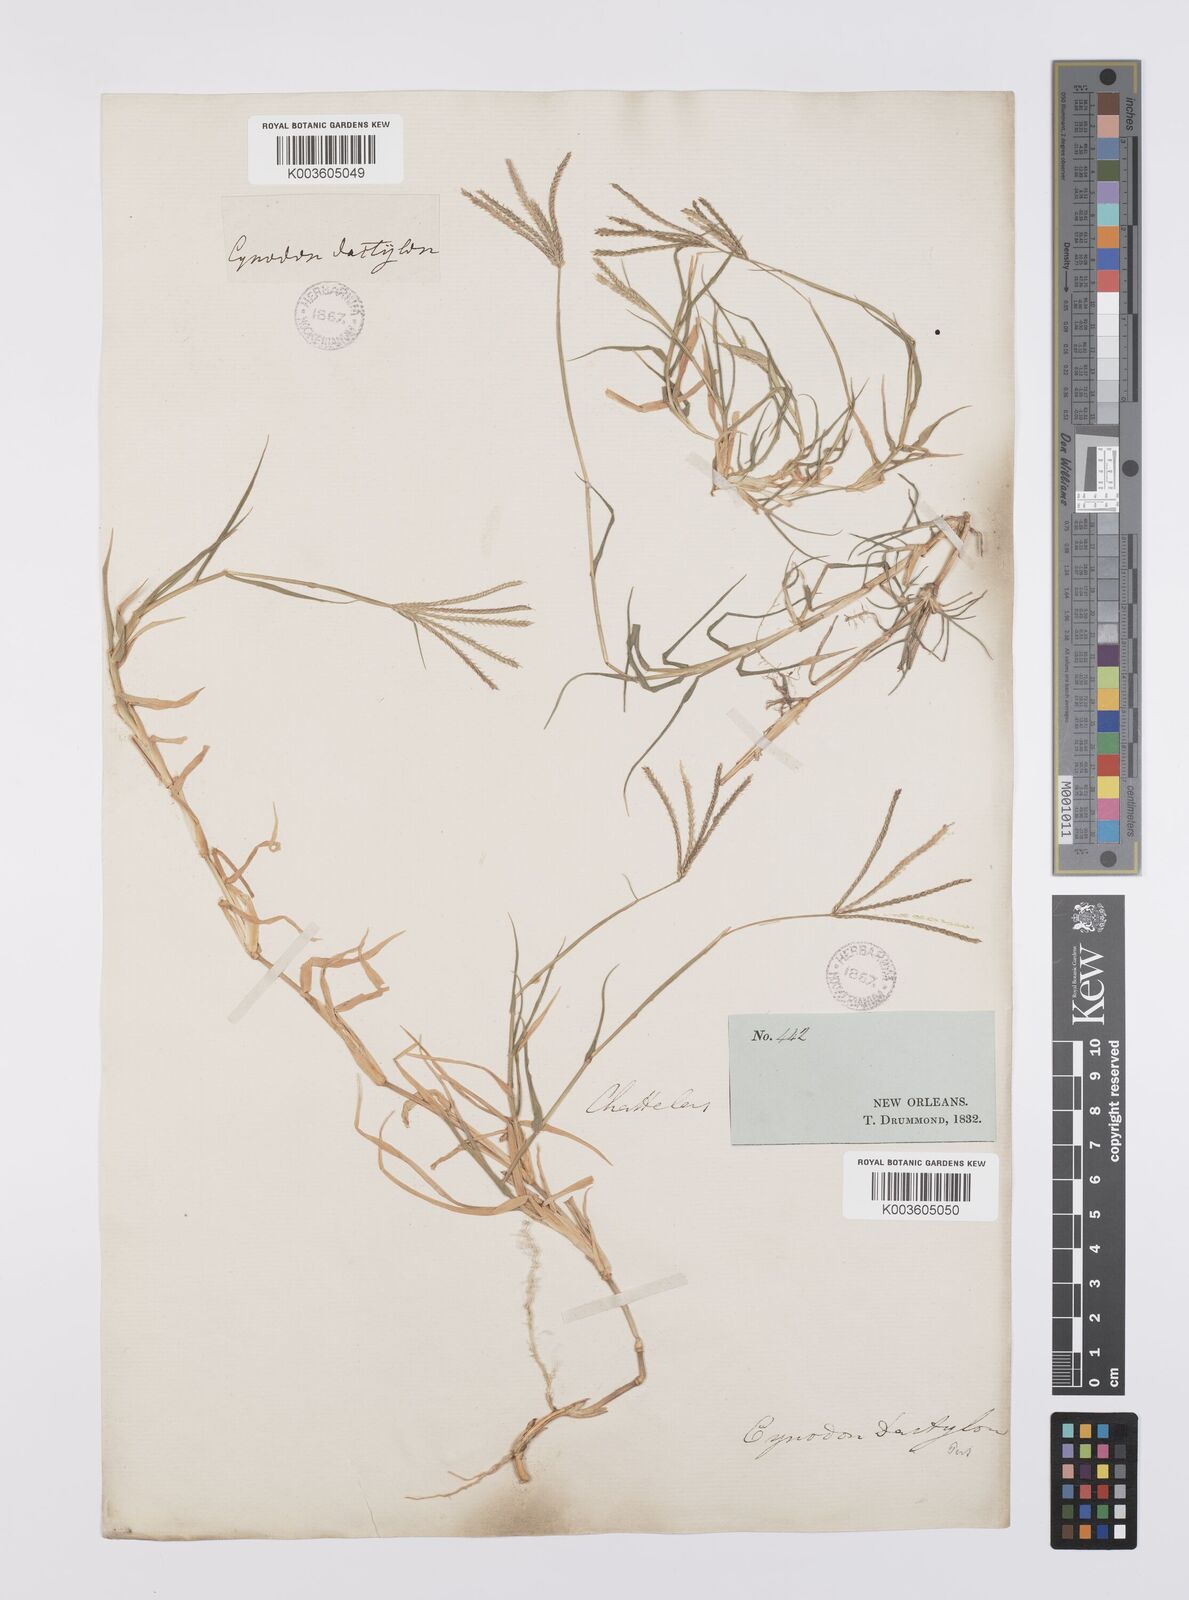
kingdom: Plantae
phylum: Tracheophyta
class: Liliopsida
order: Poales
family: Poaceae
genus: Cynodon
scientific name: Cynodon dactylon
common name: Bermuda grass
